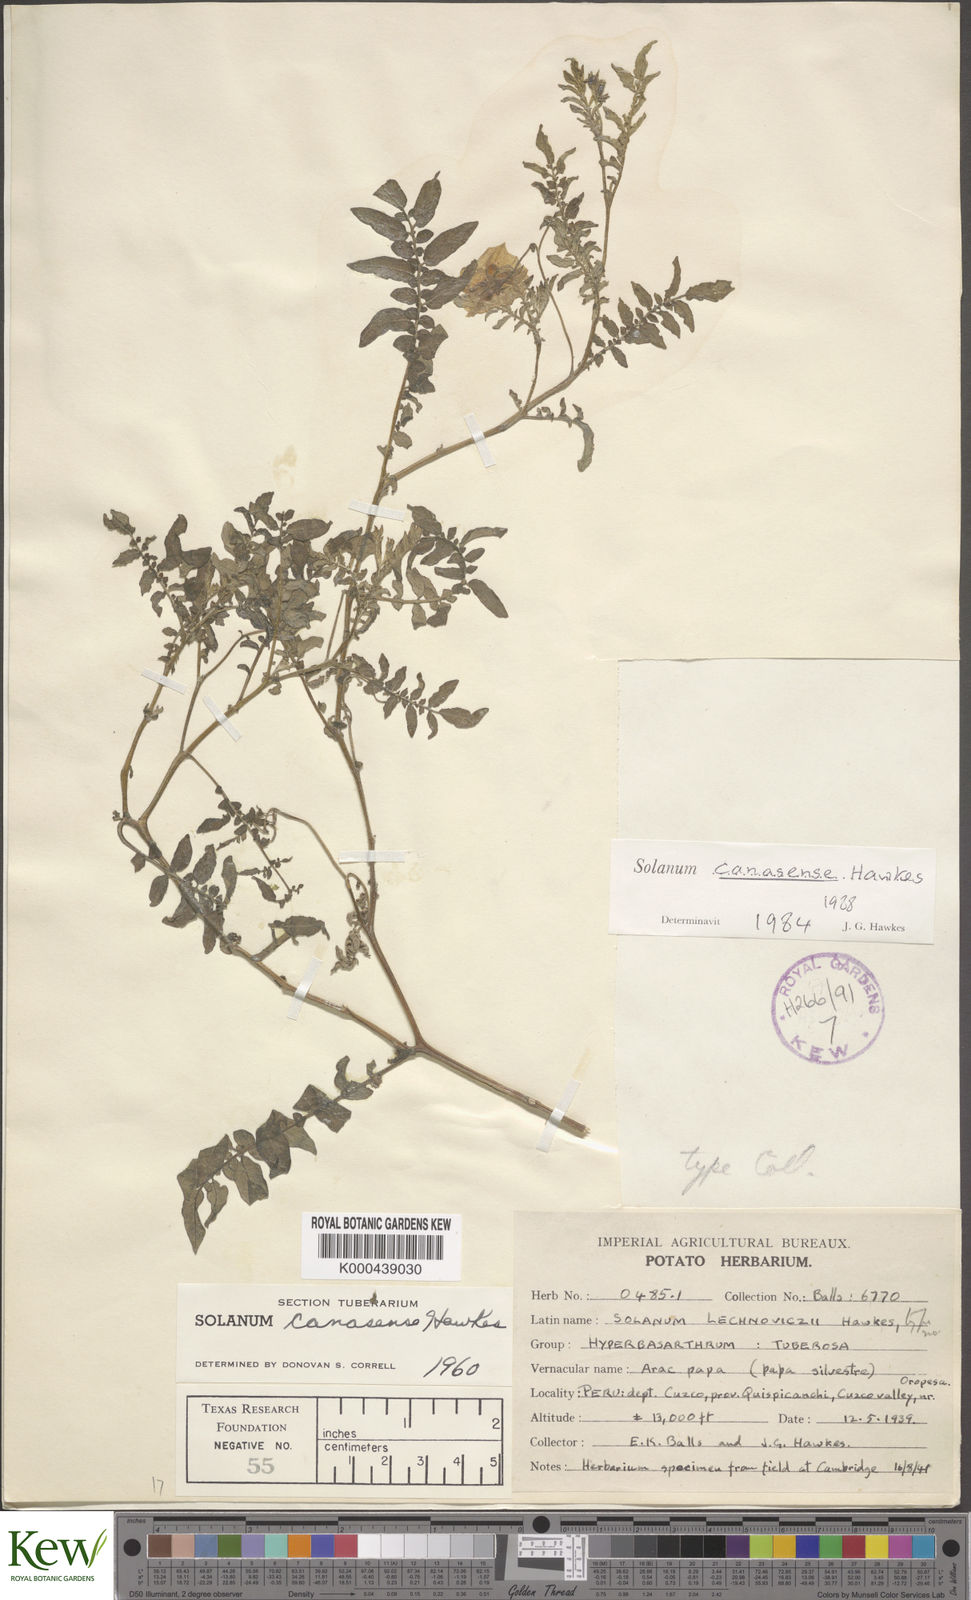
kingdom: Plantae
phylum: Tracheophyta
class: Magnoliopsida
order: Solanales
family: Solanaceae
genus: Solanum
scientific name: Solanum candolleanum
